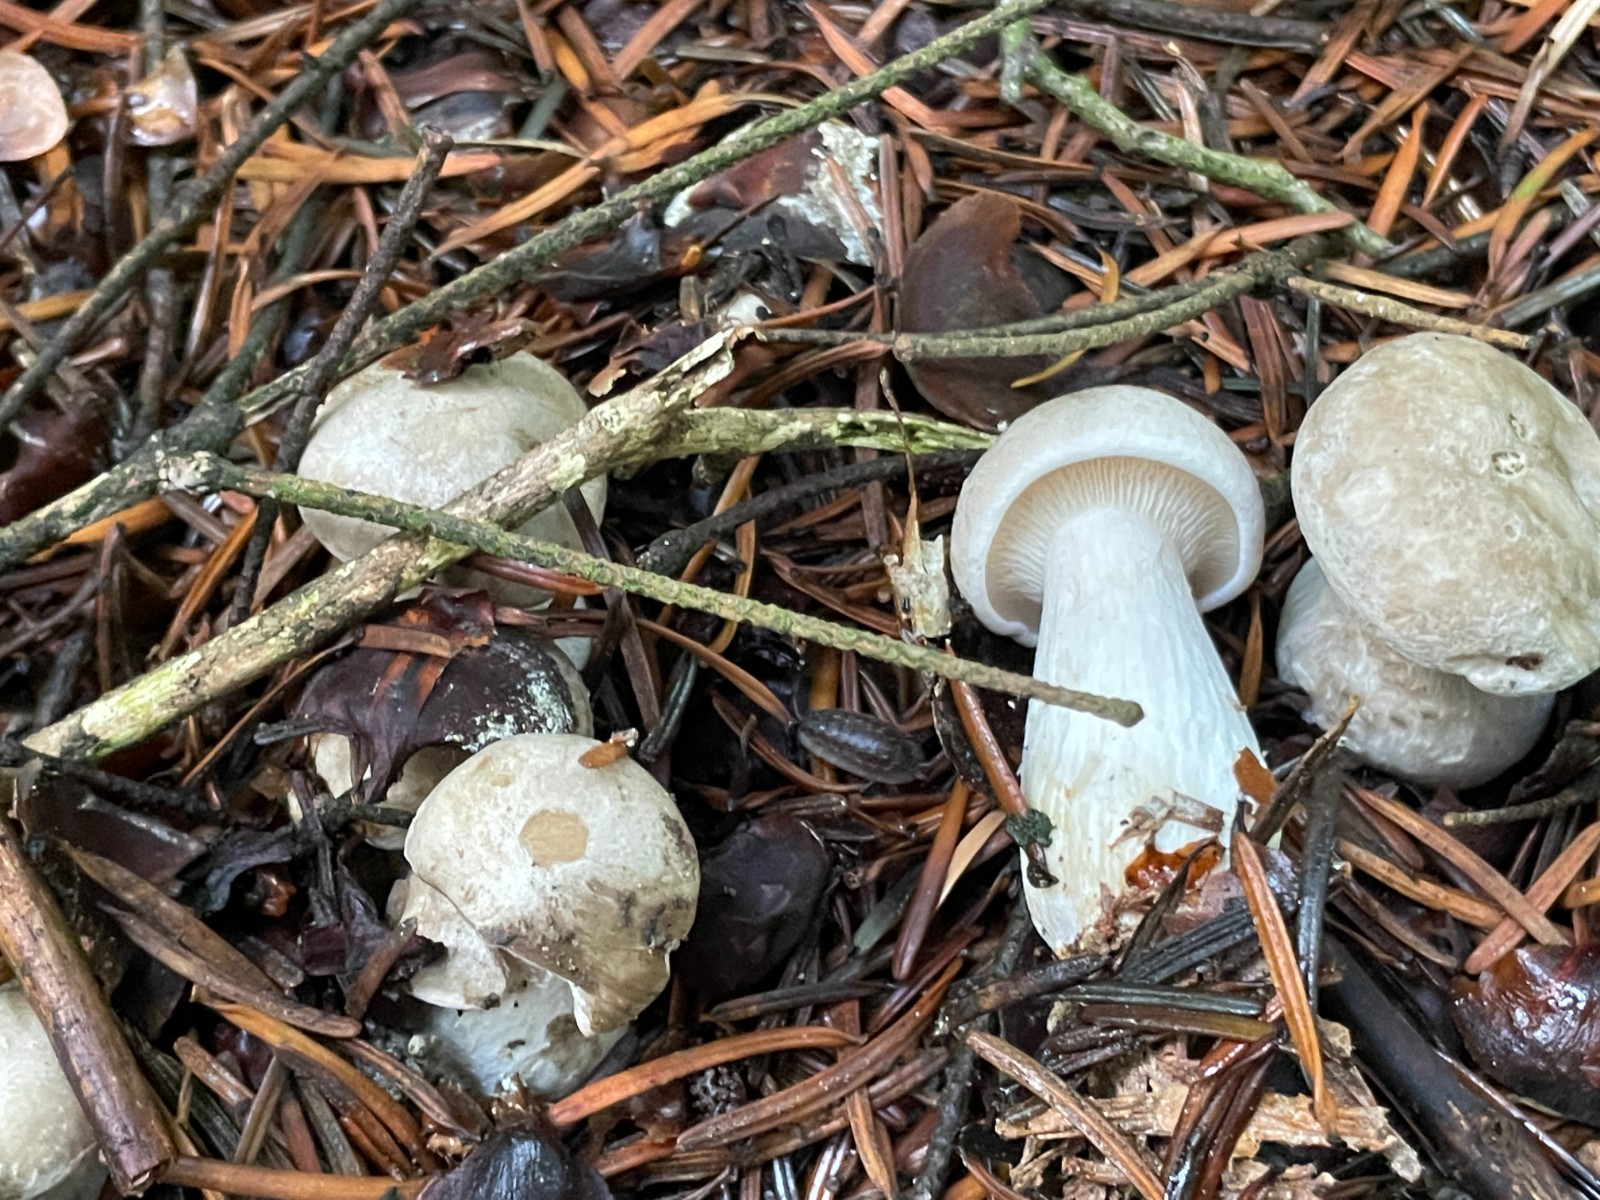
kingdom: Fungi
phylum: Basidiomycota
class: Agaricomycetes
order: Agaricales
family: Tricholomataceae
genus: Clitocybe
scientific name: Clitocybe nebularis
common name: tåge-tragthat
